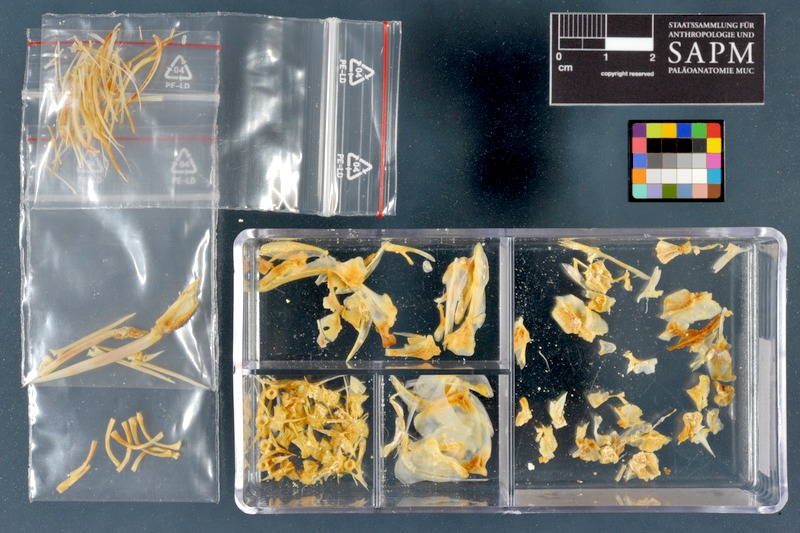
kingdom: Animalia
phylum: Chordata
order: Mugiliformes
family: Mugilidae
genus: Planiliza
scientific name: Planiliza abu
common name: Abu mullet
